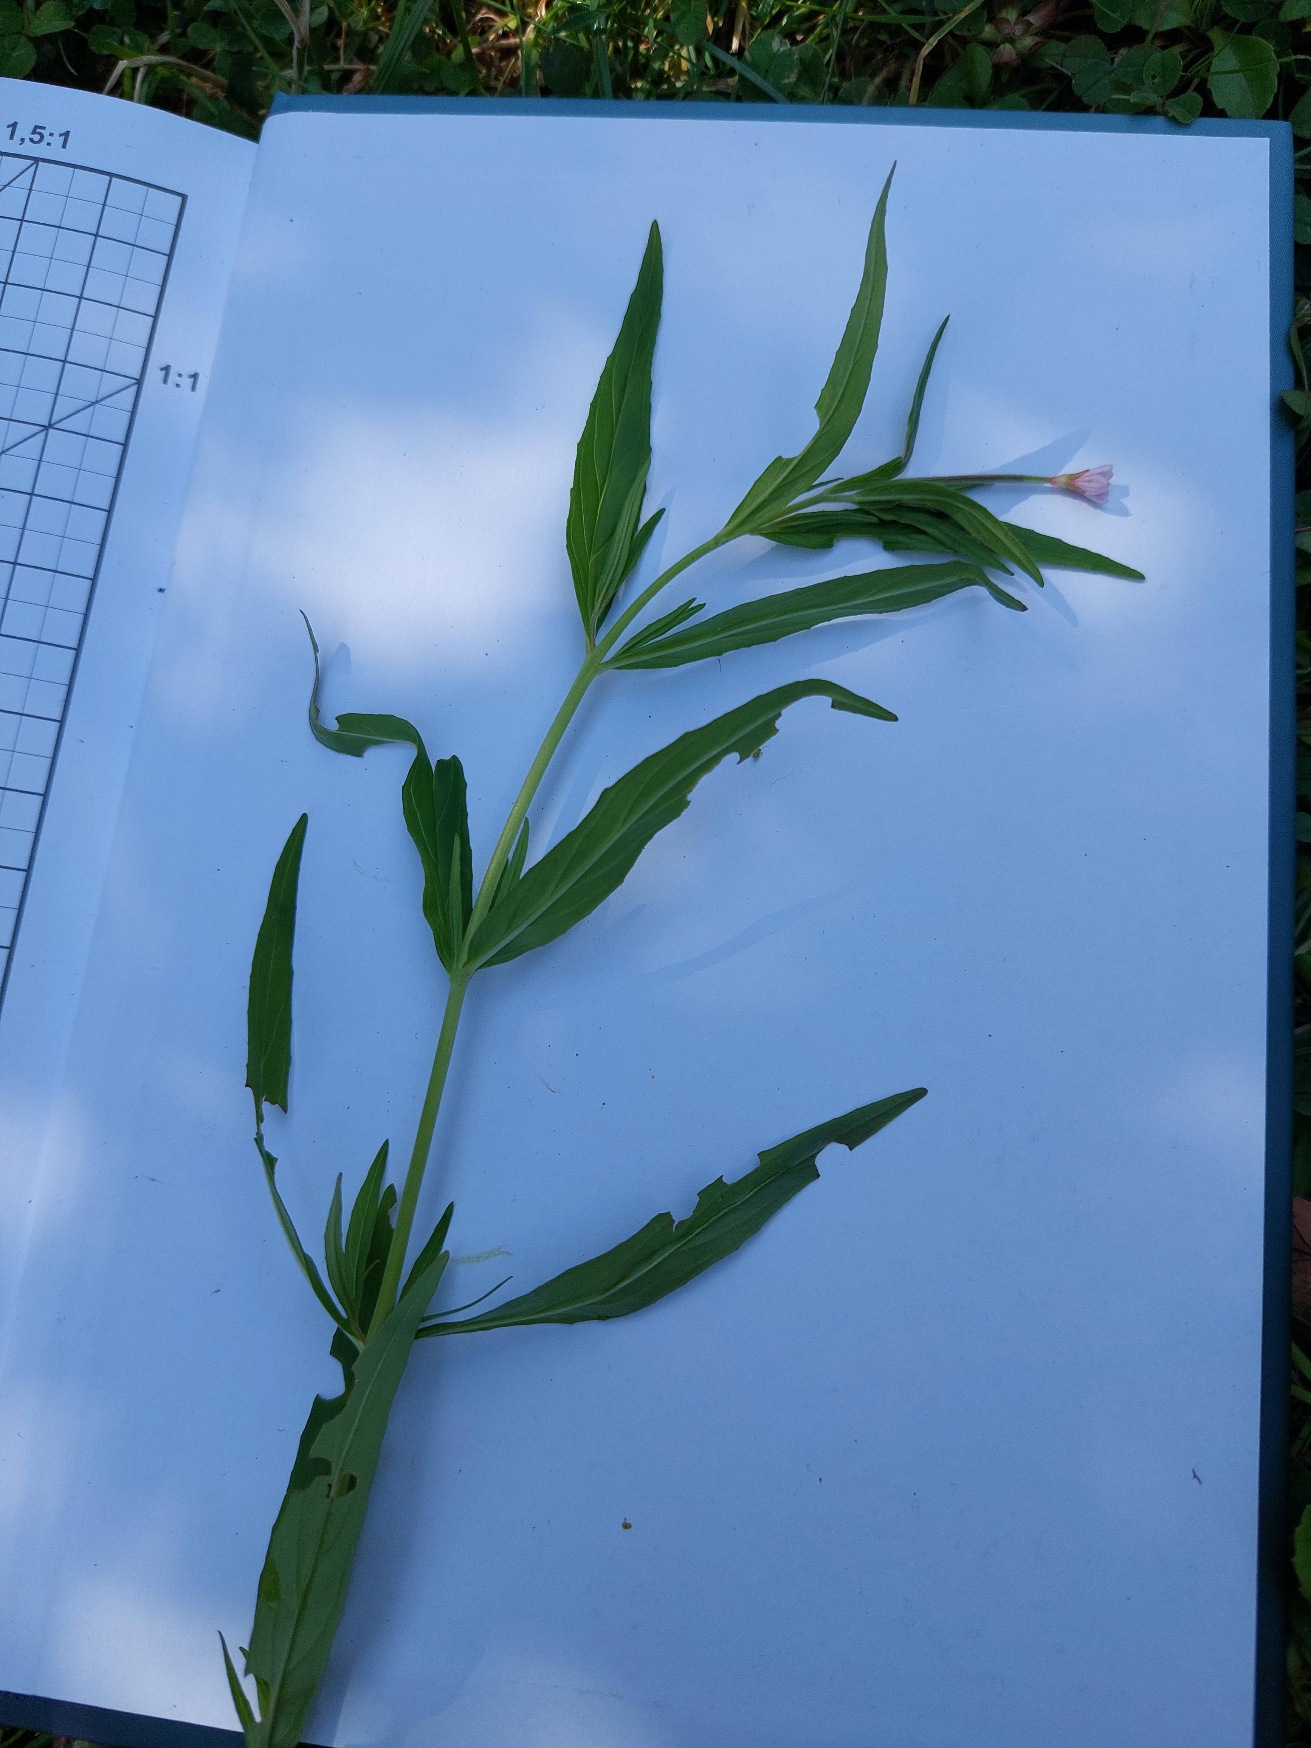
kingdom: Plantae
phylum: Tracheophyta
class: Magnoliopsida
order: Myrtales
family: Onagraceae
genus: Epilobium
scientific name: Epilobium
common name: Dueurtslægten
